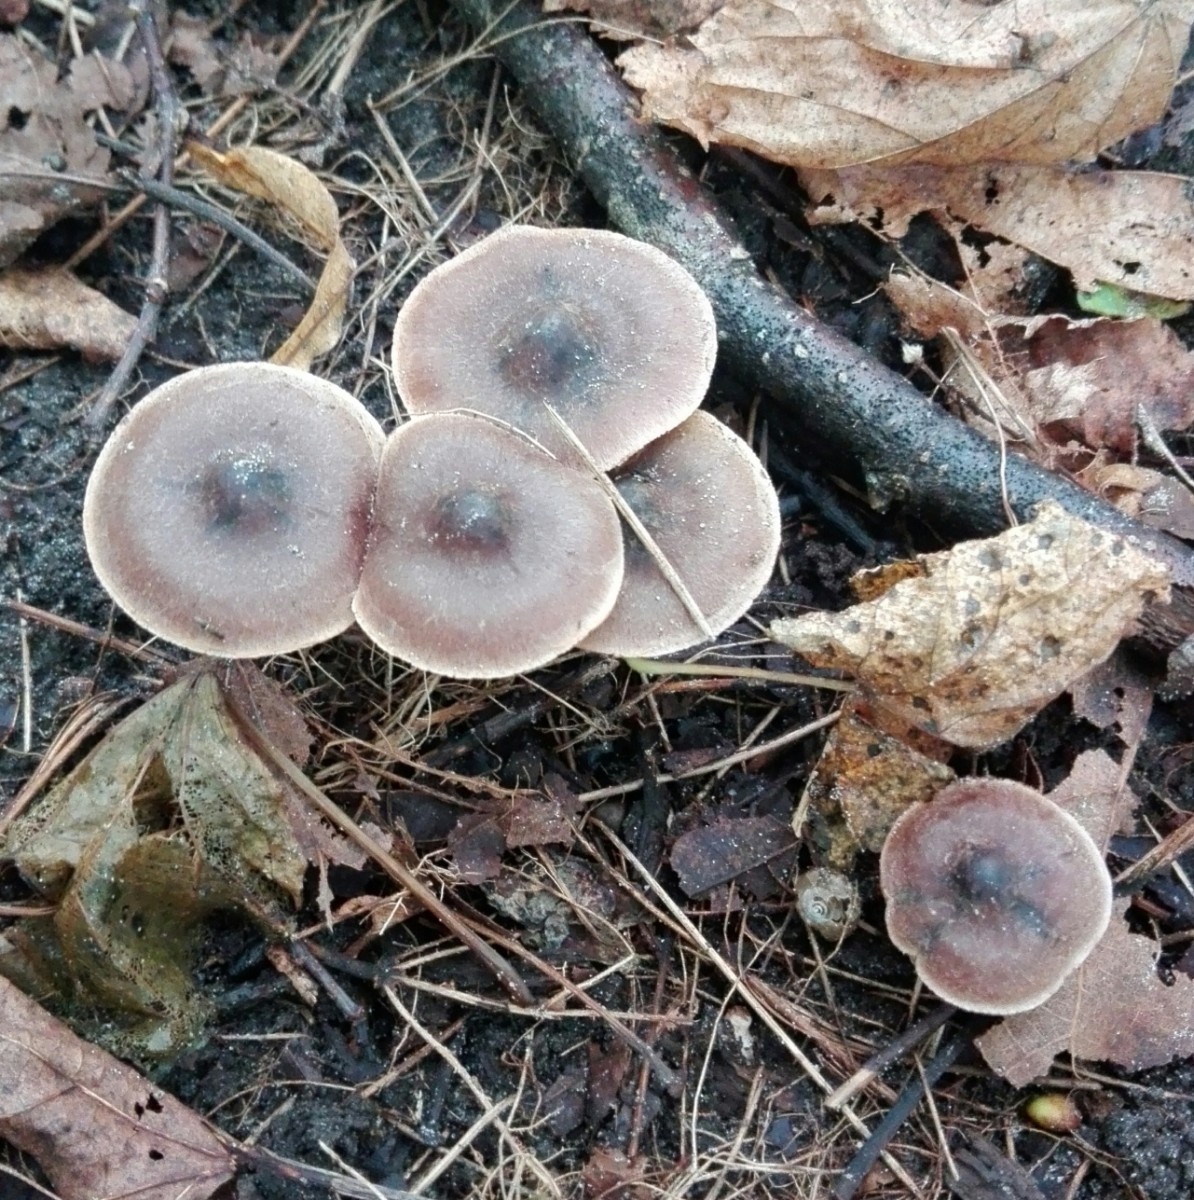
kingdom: Fungi
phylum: Basidiomycota
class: Agaricomycetes
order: Agaricales
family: Cortinariaceae
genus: Cortinarius
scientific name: Cortinarius
